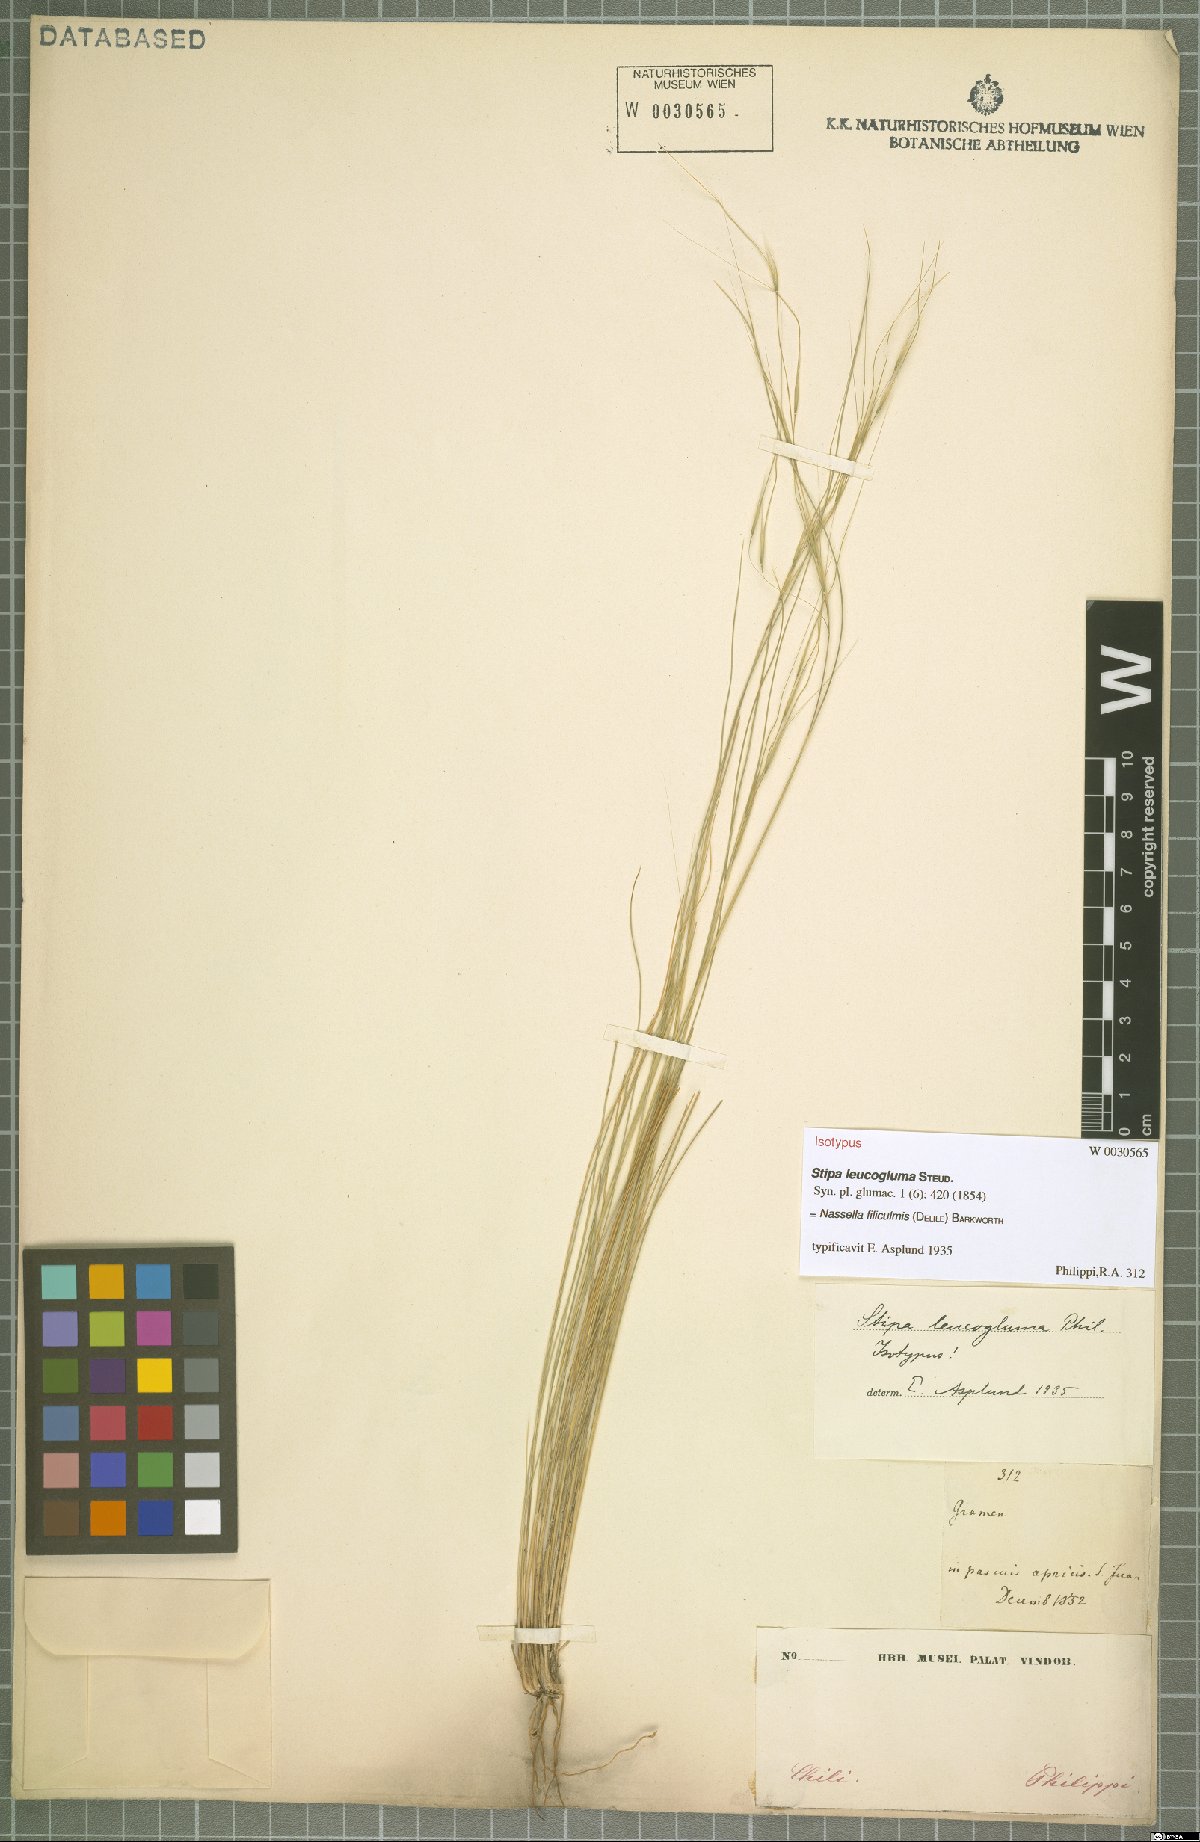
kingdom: Plantae
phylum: Tracheophyta
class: Liliopsida
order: Poales
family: Poaceae
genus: Nassella
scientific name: Nassella filiculmis
